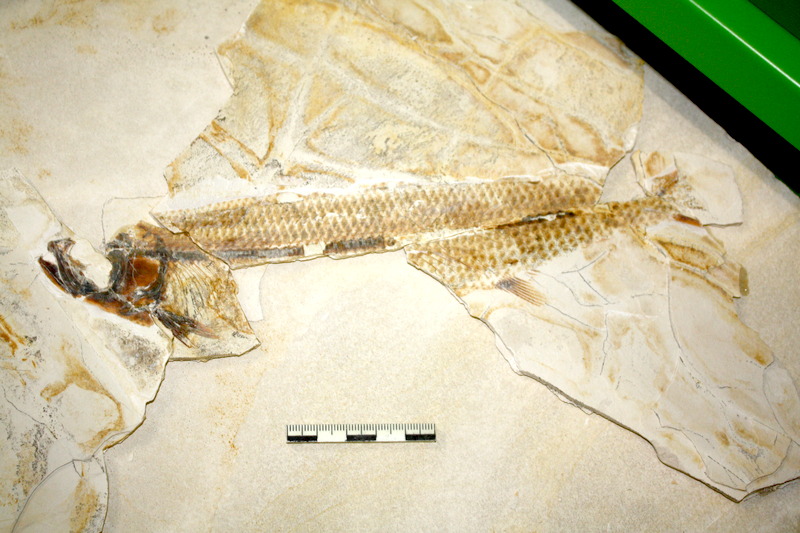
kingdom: Animalia
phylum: Chordata
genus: Thrissops
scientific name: Thrissops formosus
